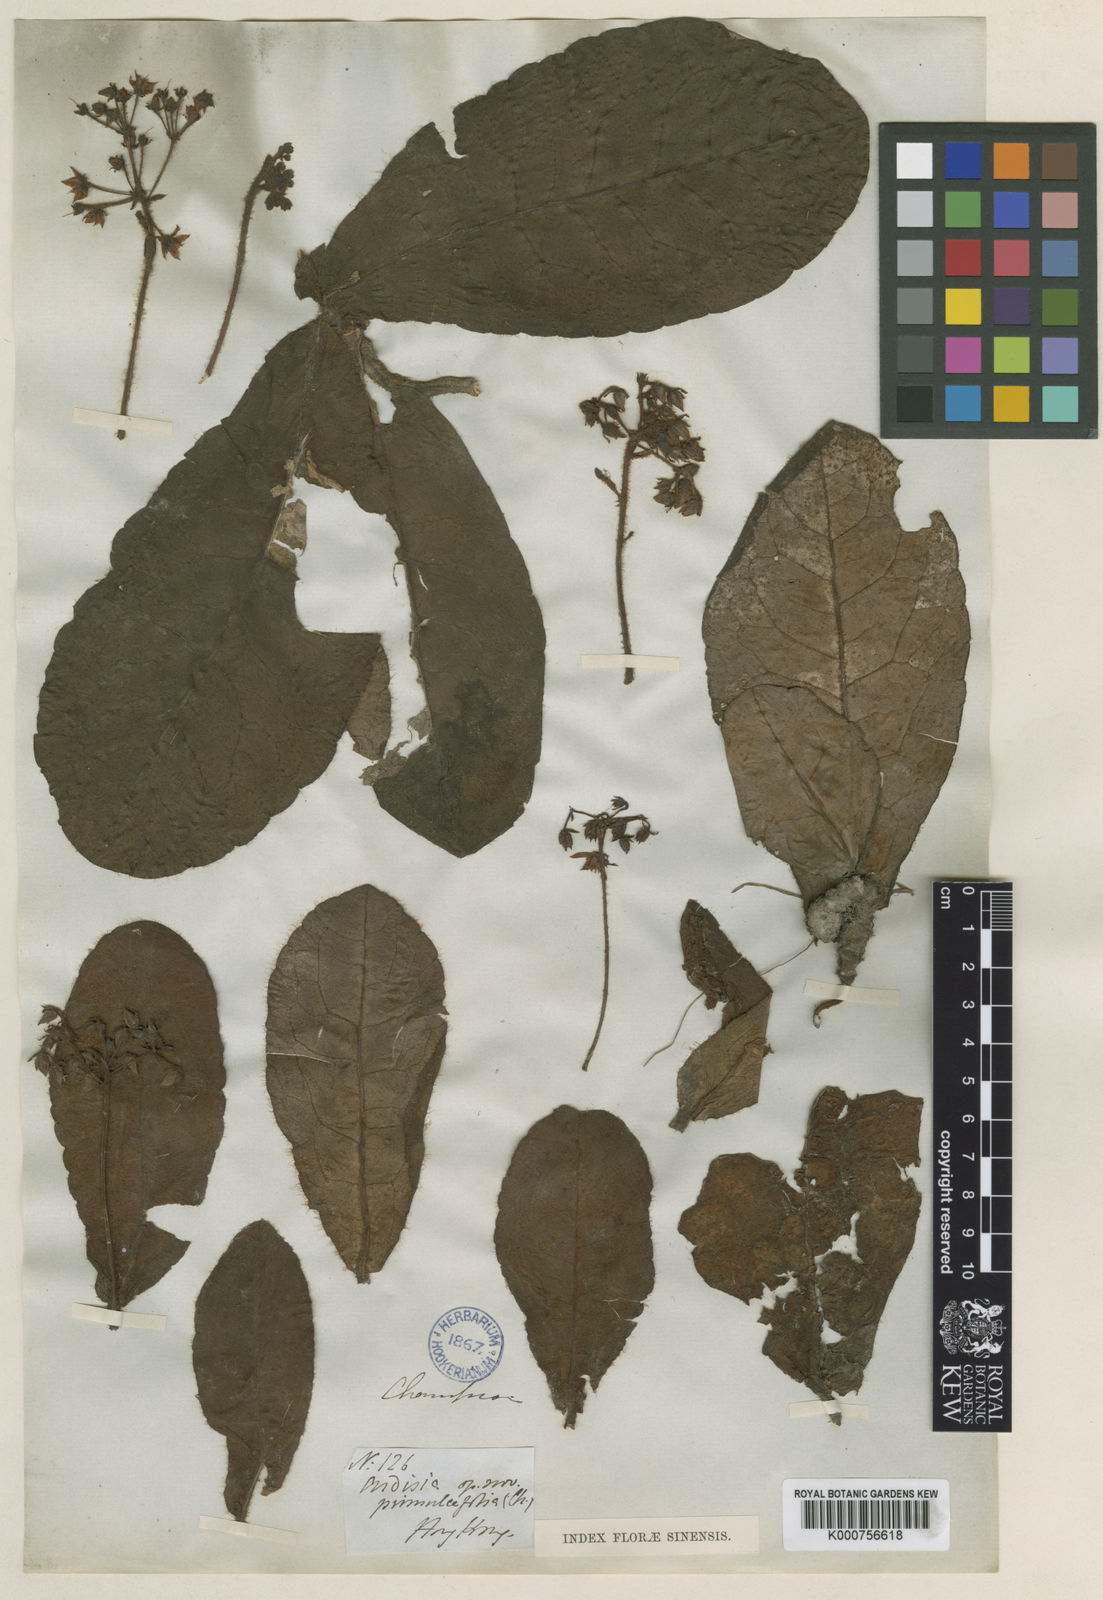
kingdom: Plantae
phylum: Tracheophyta
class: Magnoliopsida
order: Ericales
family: Primulaceae
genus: Ardisia
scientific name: Ardisia primulifolia
